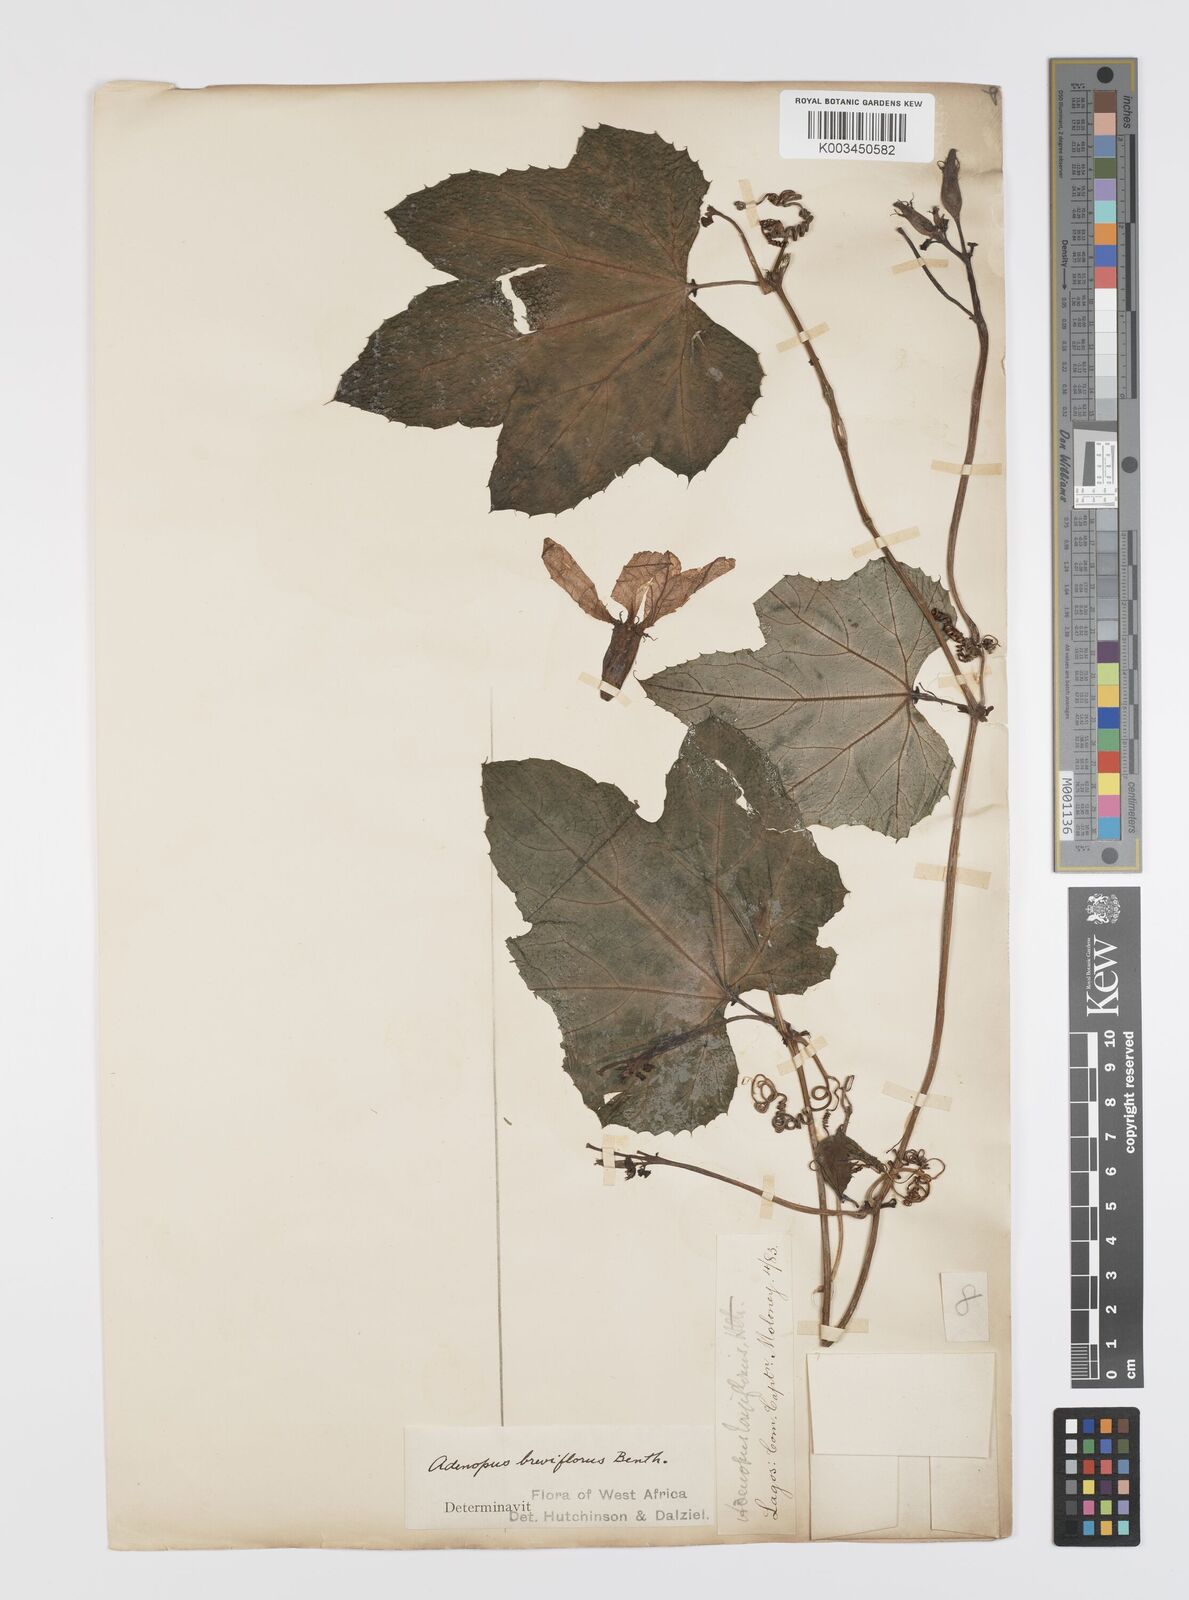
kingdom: Plantae
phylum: Tracheophyta
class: Magnoliopsida
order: Cucurbitales
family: Cucurbitaceae
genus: Lagenaria
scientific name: Lagenaria breviflora
